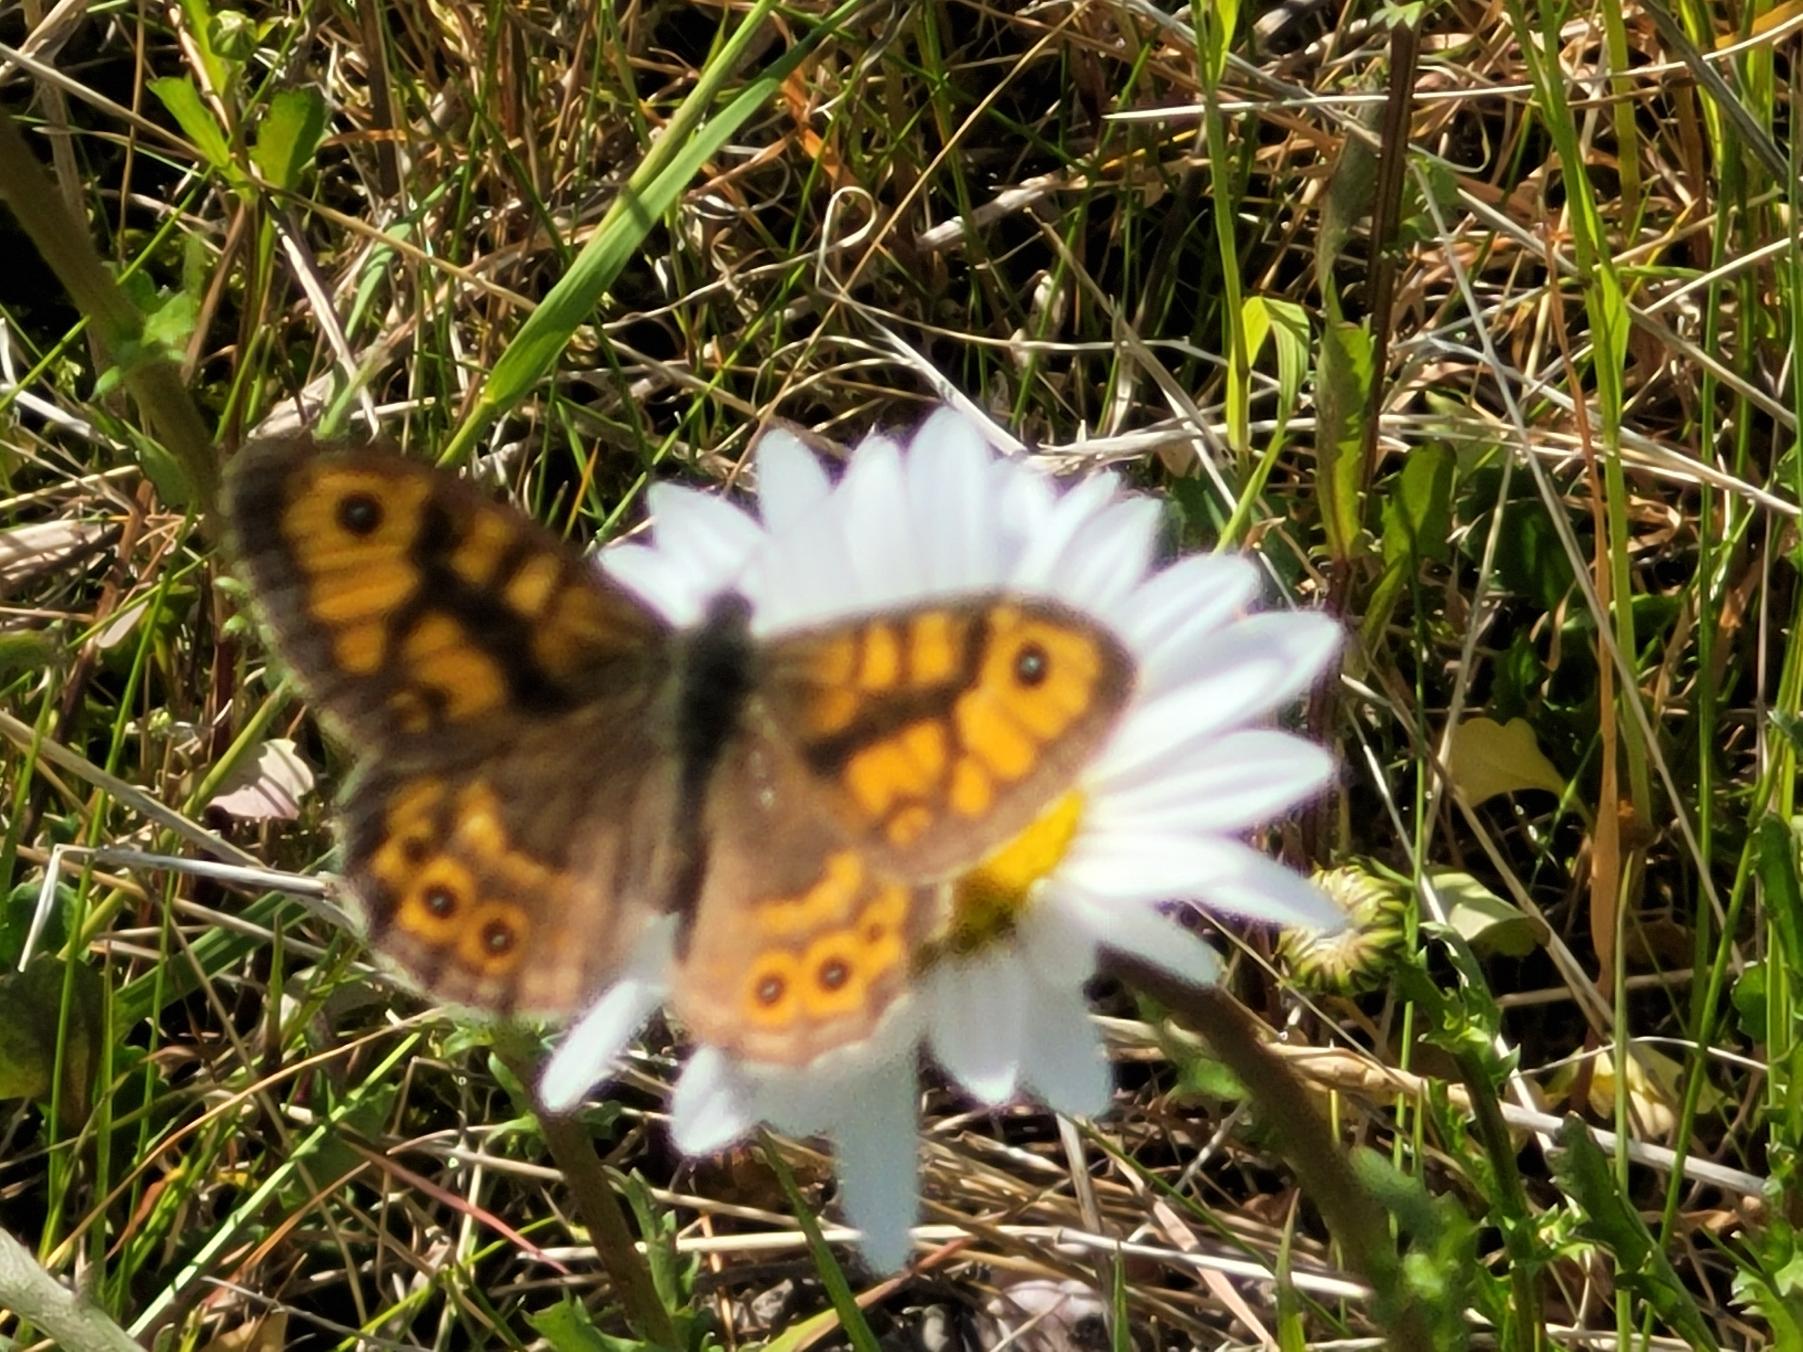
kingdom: Animalia
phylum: Arthropoda
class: Insecta
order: Lepidoptera
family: Nymphalidae
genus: Pararge
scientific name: Pararge Lasiommata megera
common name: Vejrandøje
